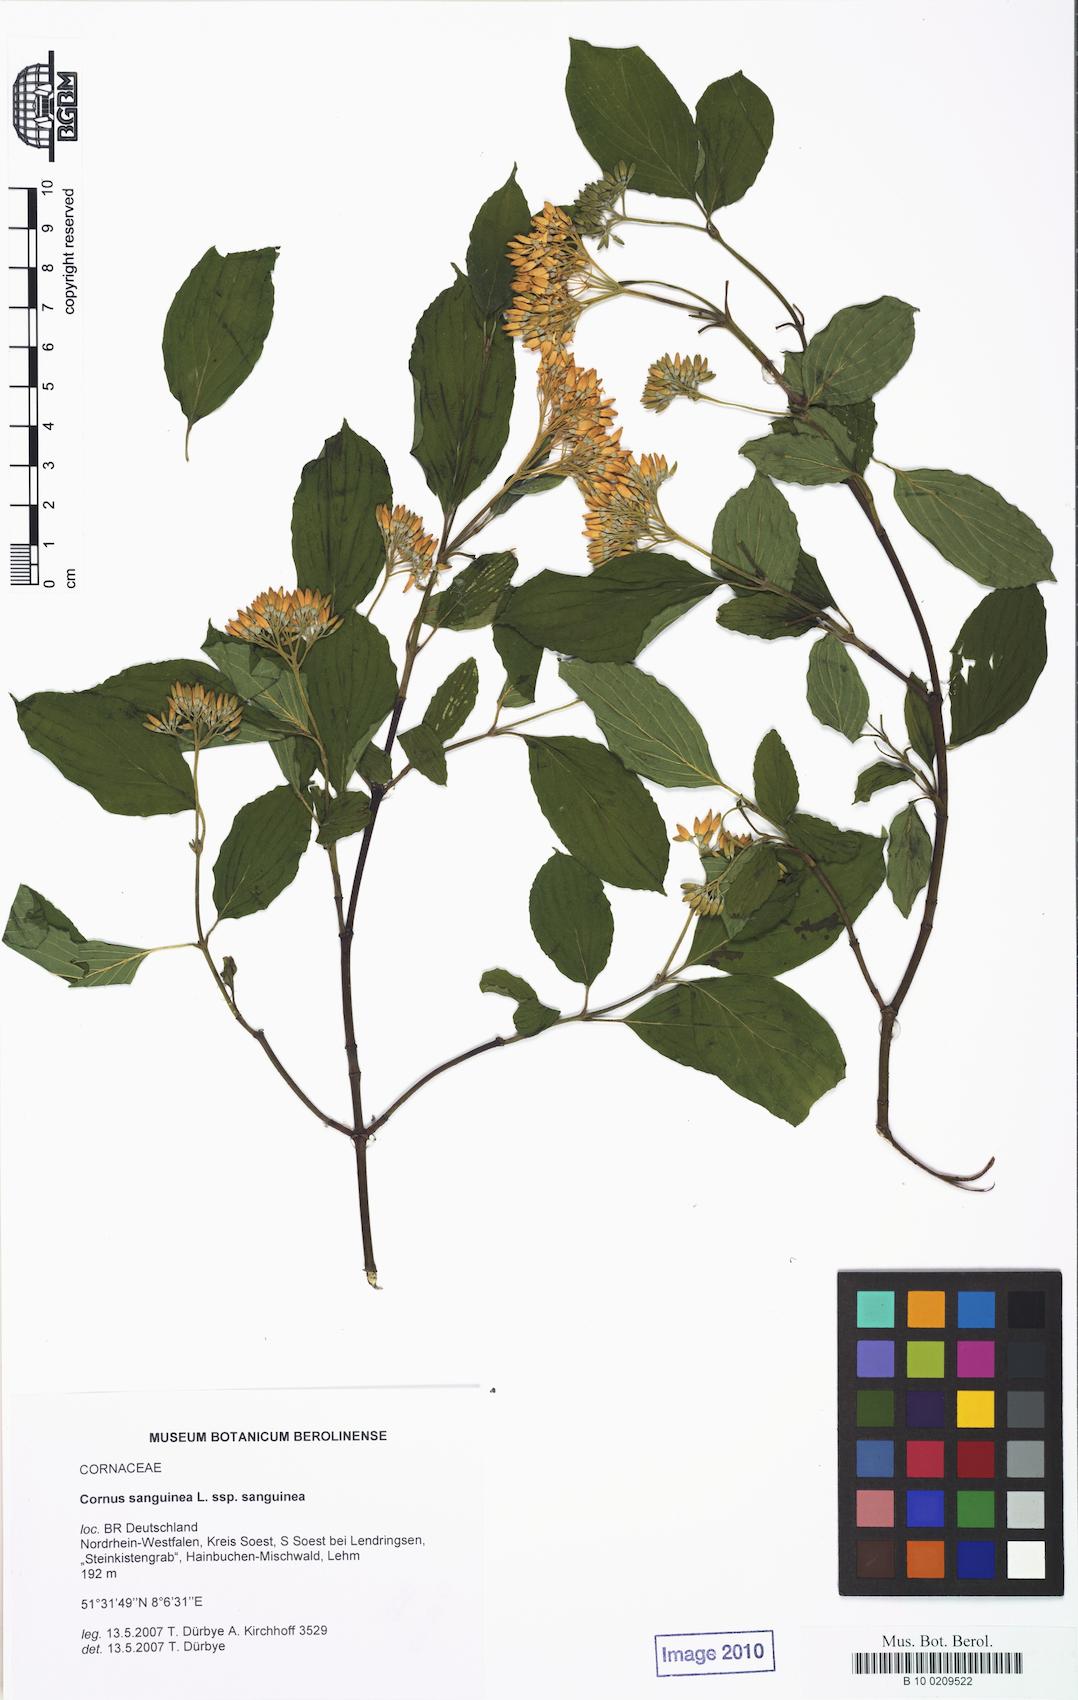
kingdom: Plantae
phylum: Tracheophyta
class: Magnoliopsida
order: Cornales
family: Cornaceae
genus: Cornus
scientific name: Cornus sanguinea
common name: Dogwood
